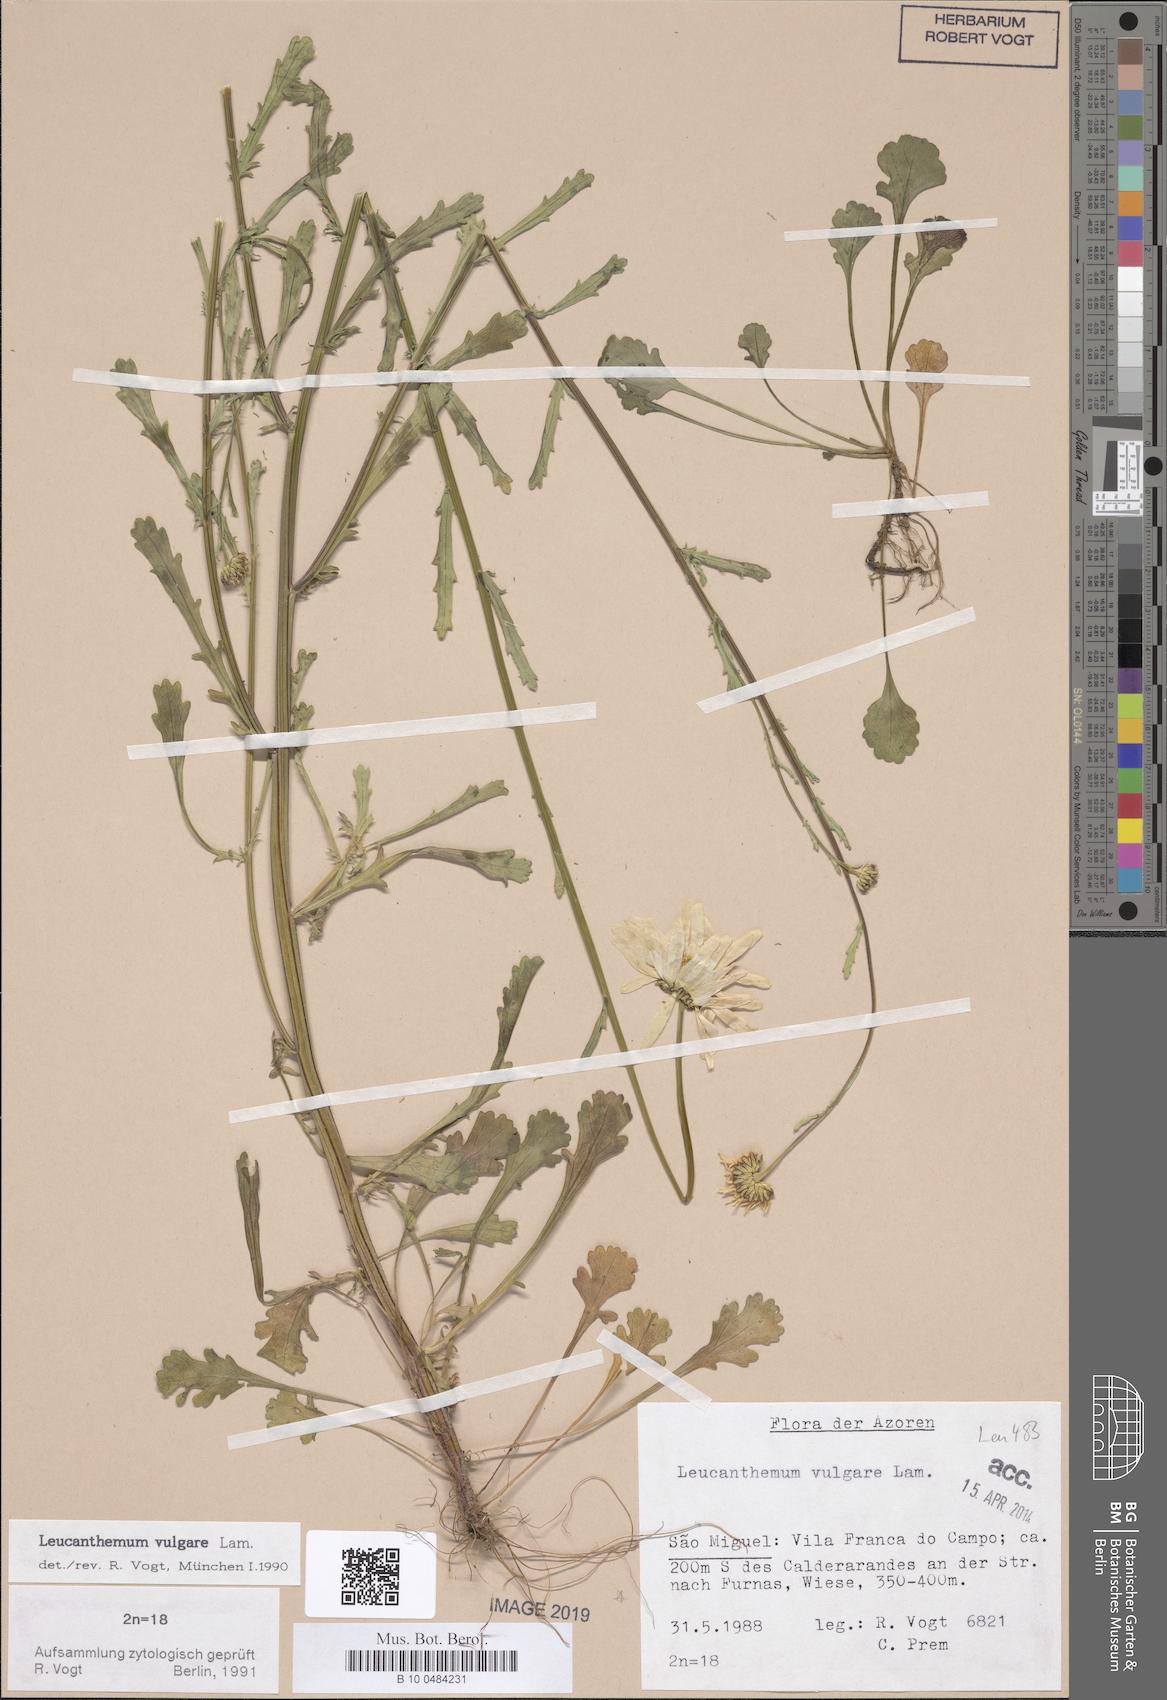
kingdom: Plantae
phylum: Tracheophyta
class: Magnoliopsida
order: Asterales
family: Asteraceae
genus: Leucanthemum
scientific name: Leucanthemum vulgare
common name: Oxeye daisy
